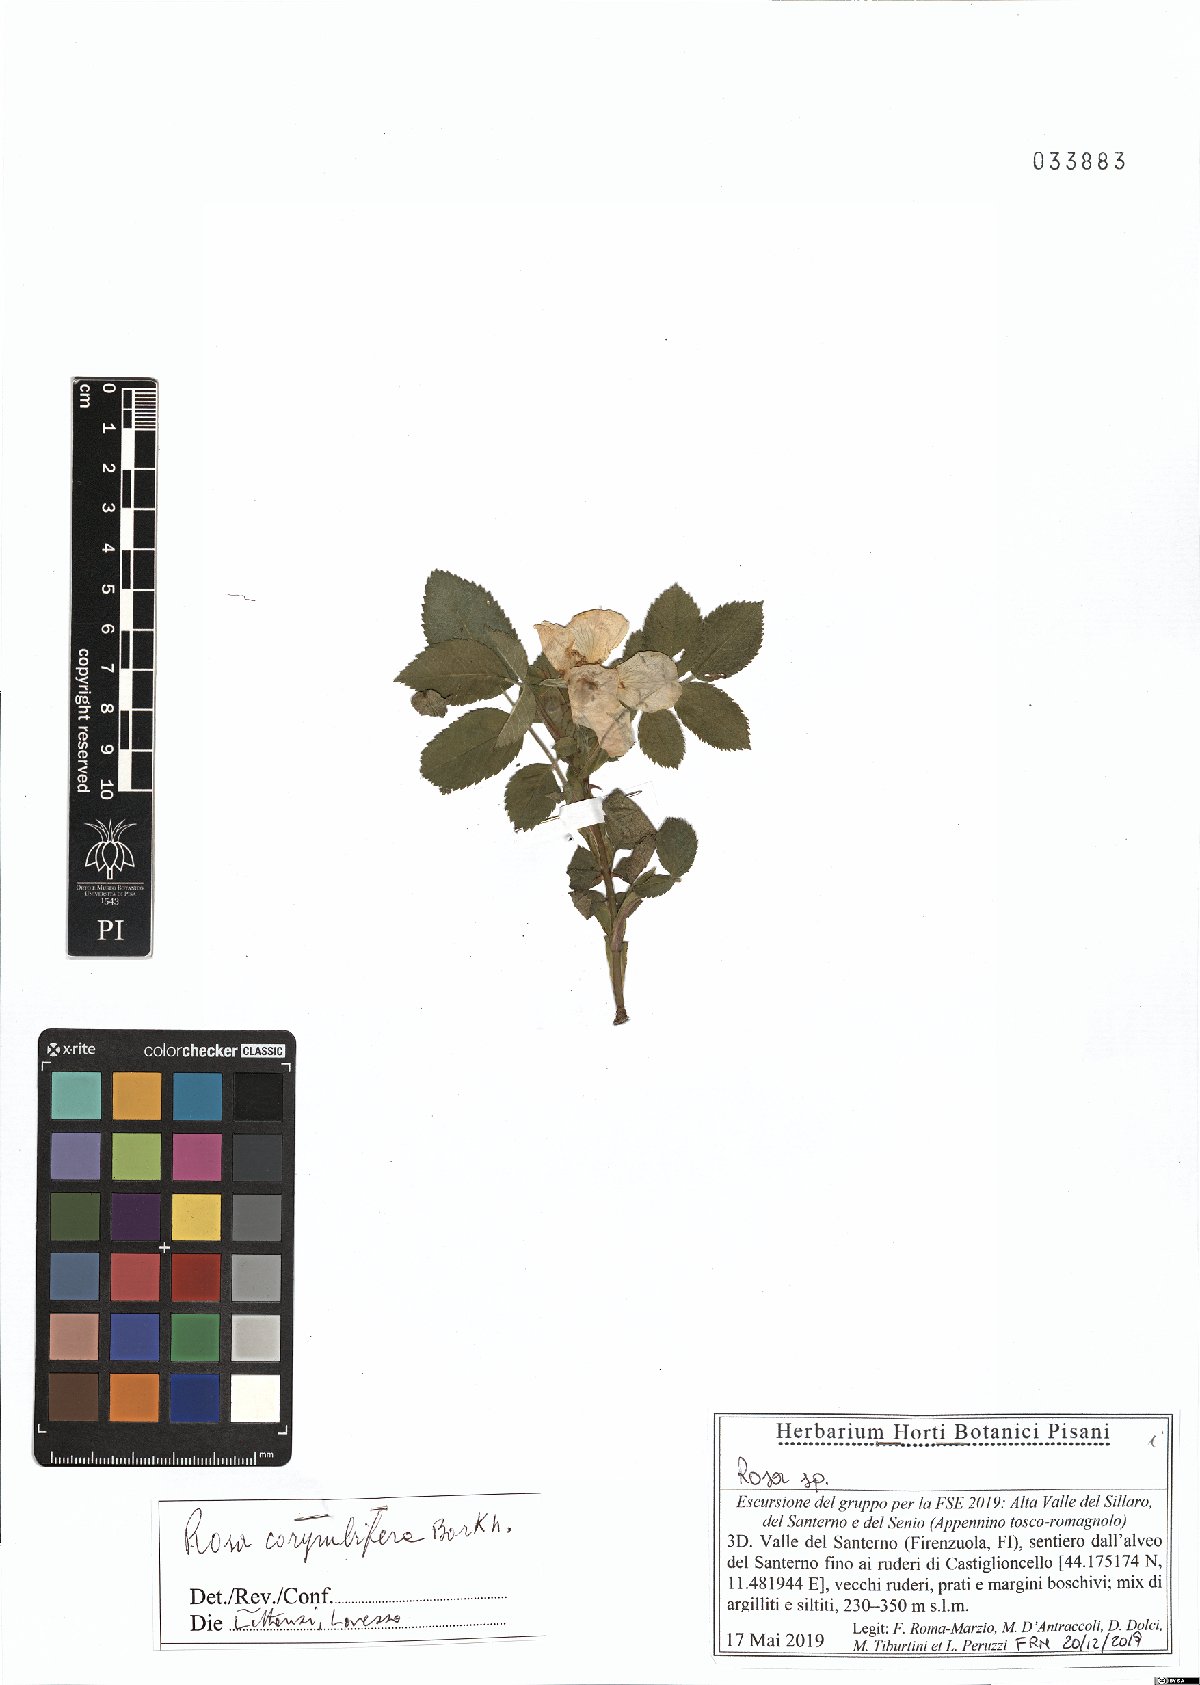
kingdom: Plantae
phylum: Tracheophyta
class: Magnoliopsida
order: Rosales
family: Rosaceae
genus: Rosa
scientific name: Rosa corymbifera
